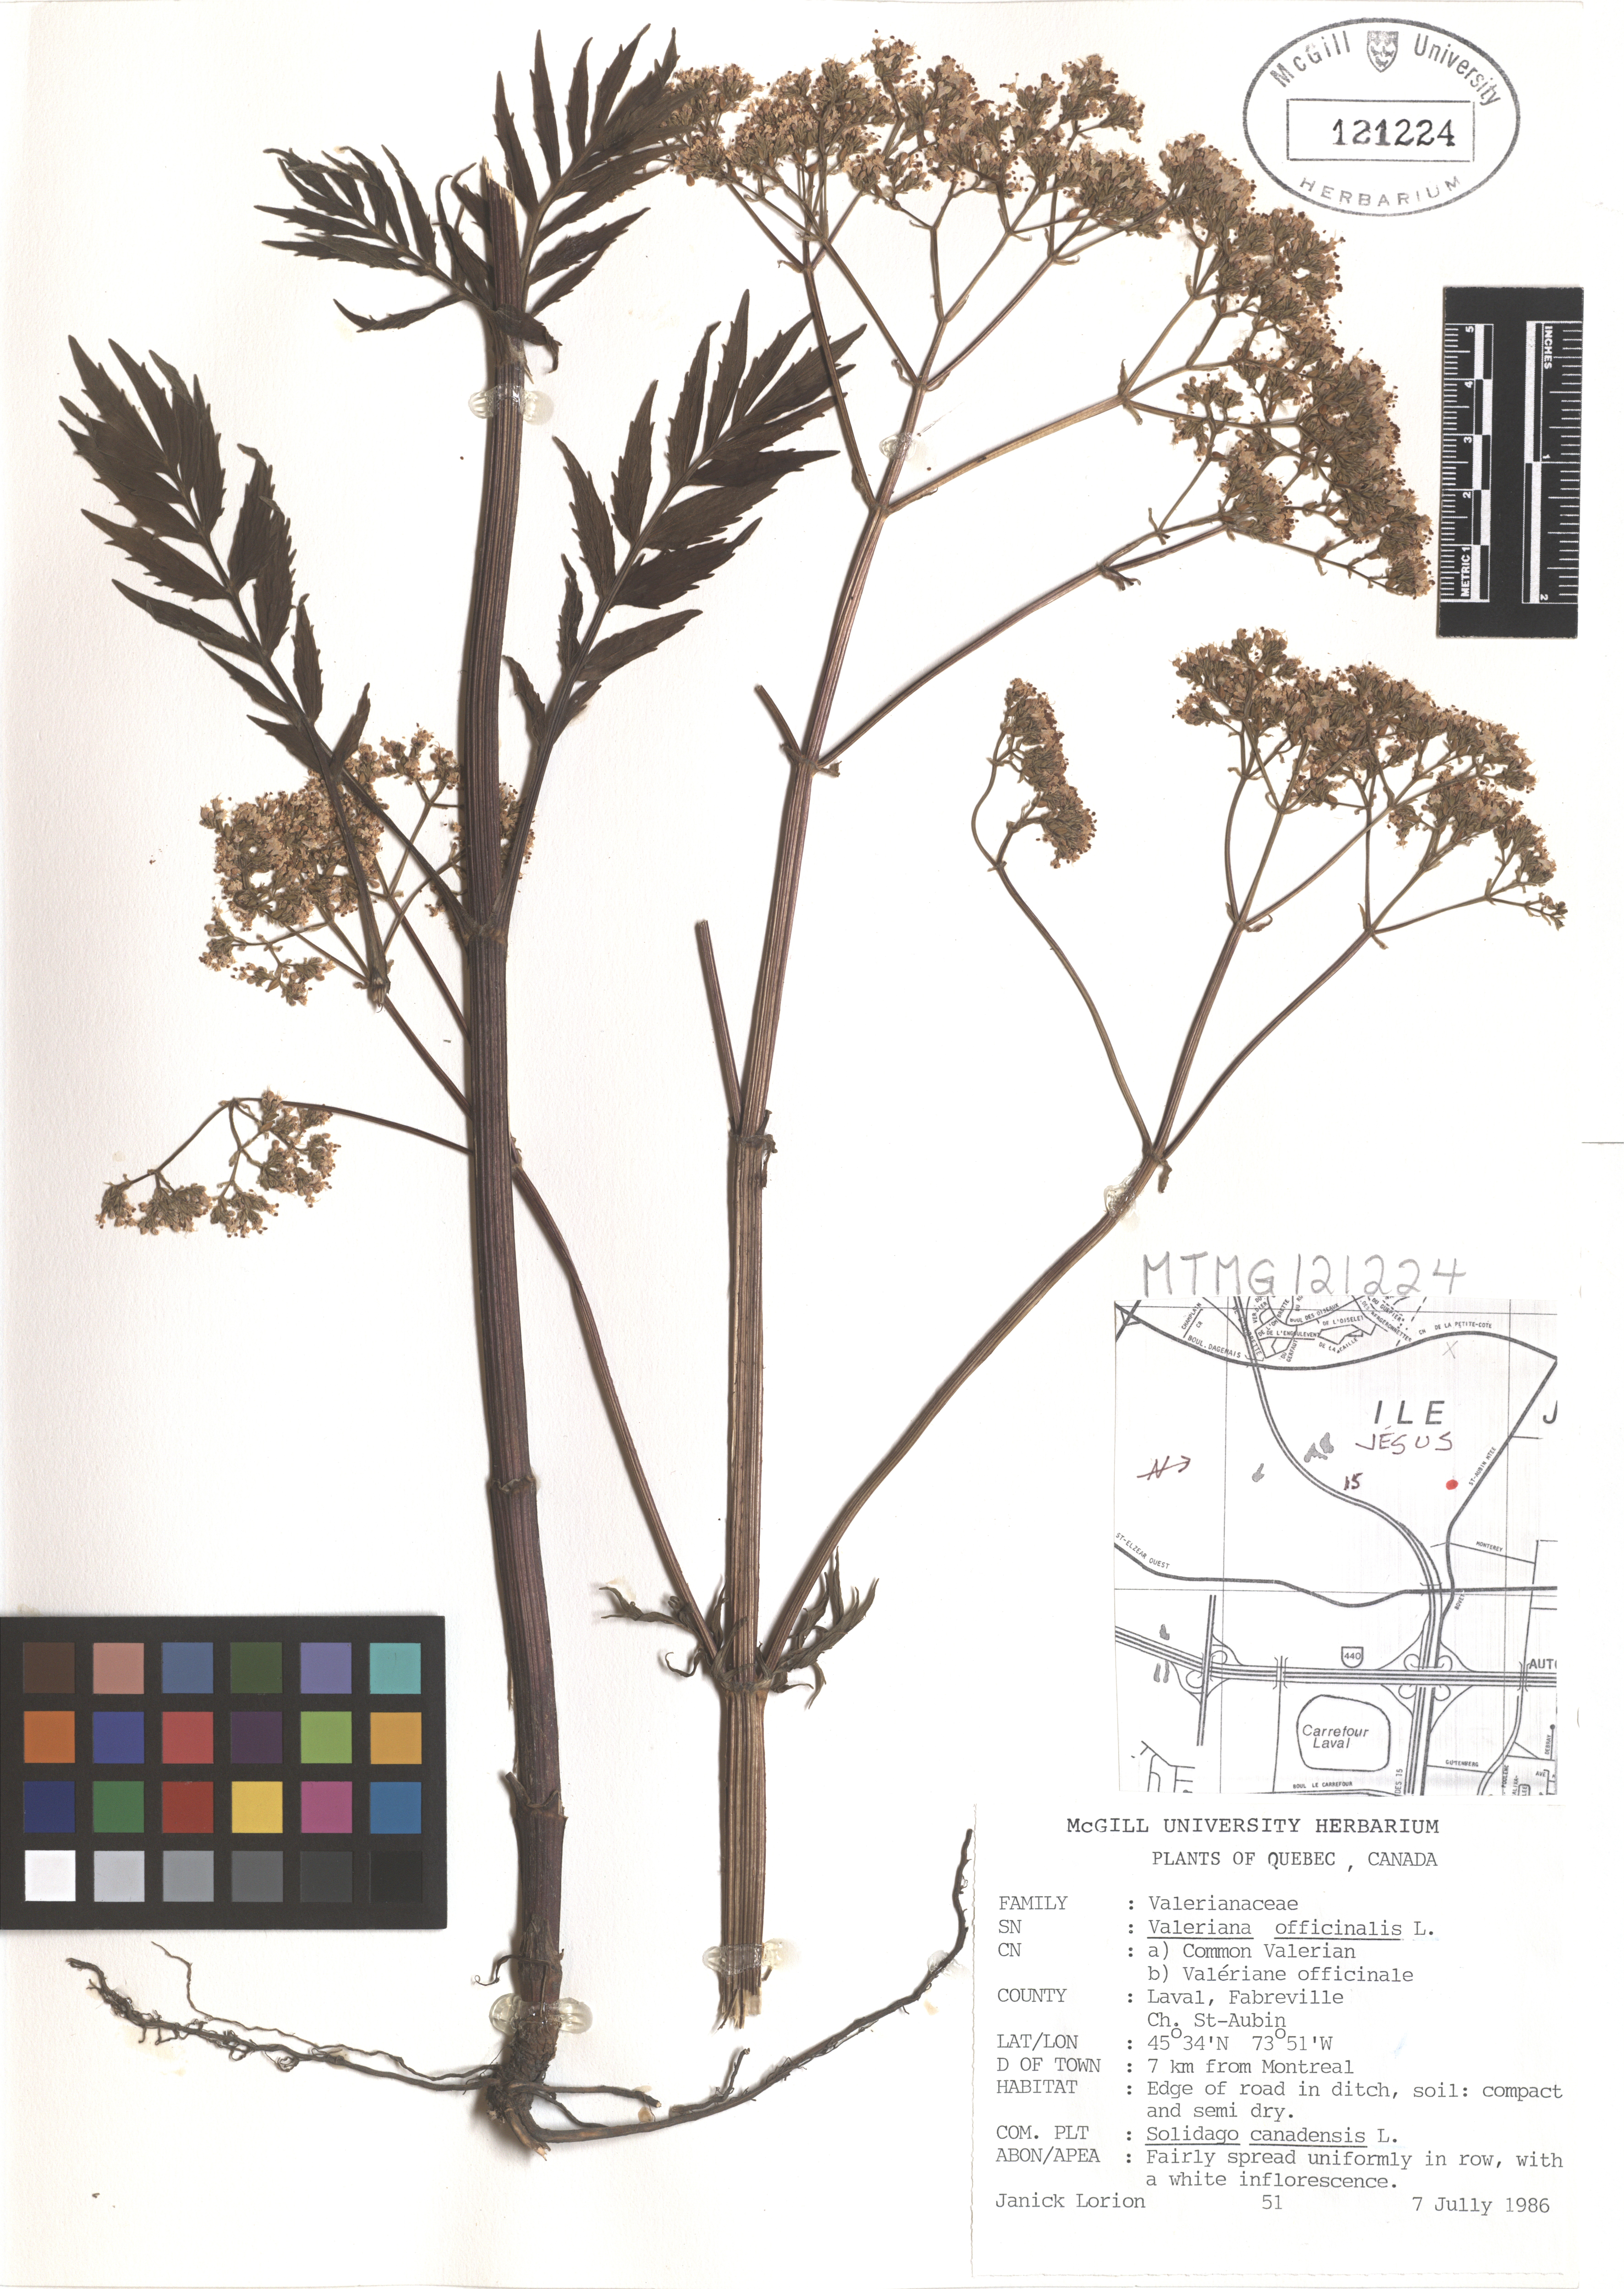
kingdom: Plantae
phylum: Tracheophyta
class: Magnoliopsida
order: Dipsacales
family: Caprifoliaceae
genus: Valeriana
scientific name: Valeriana officinalis
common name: Common valerian
